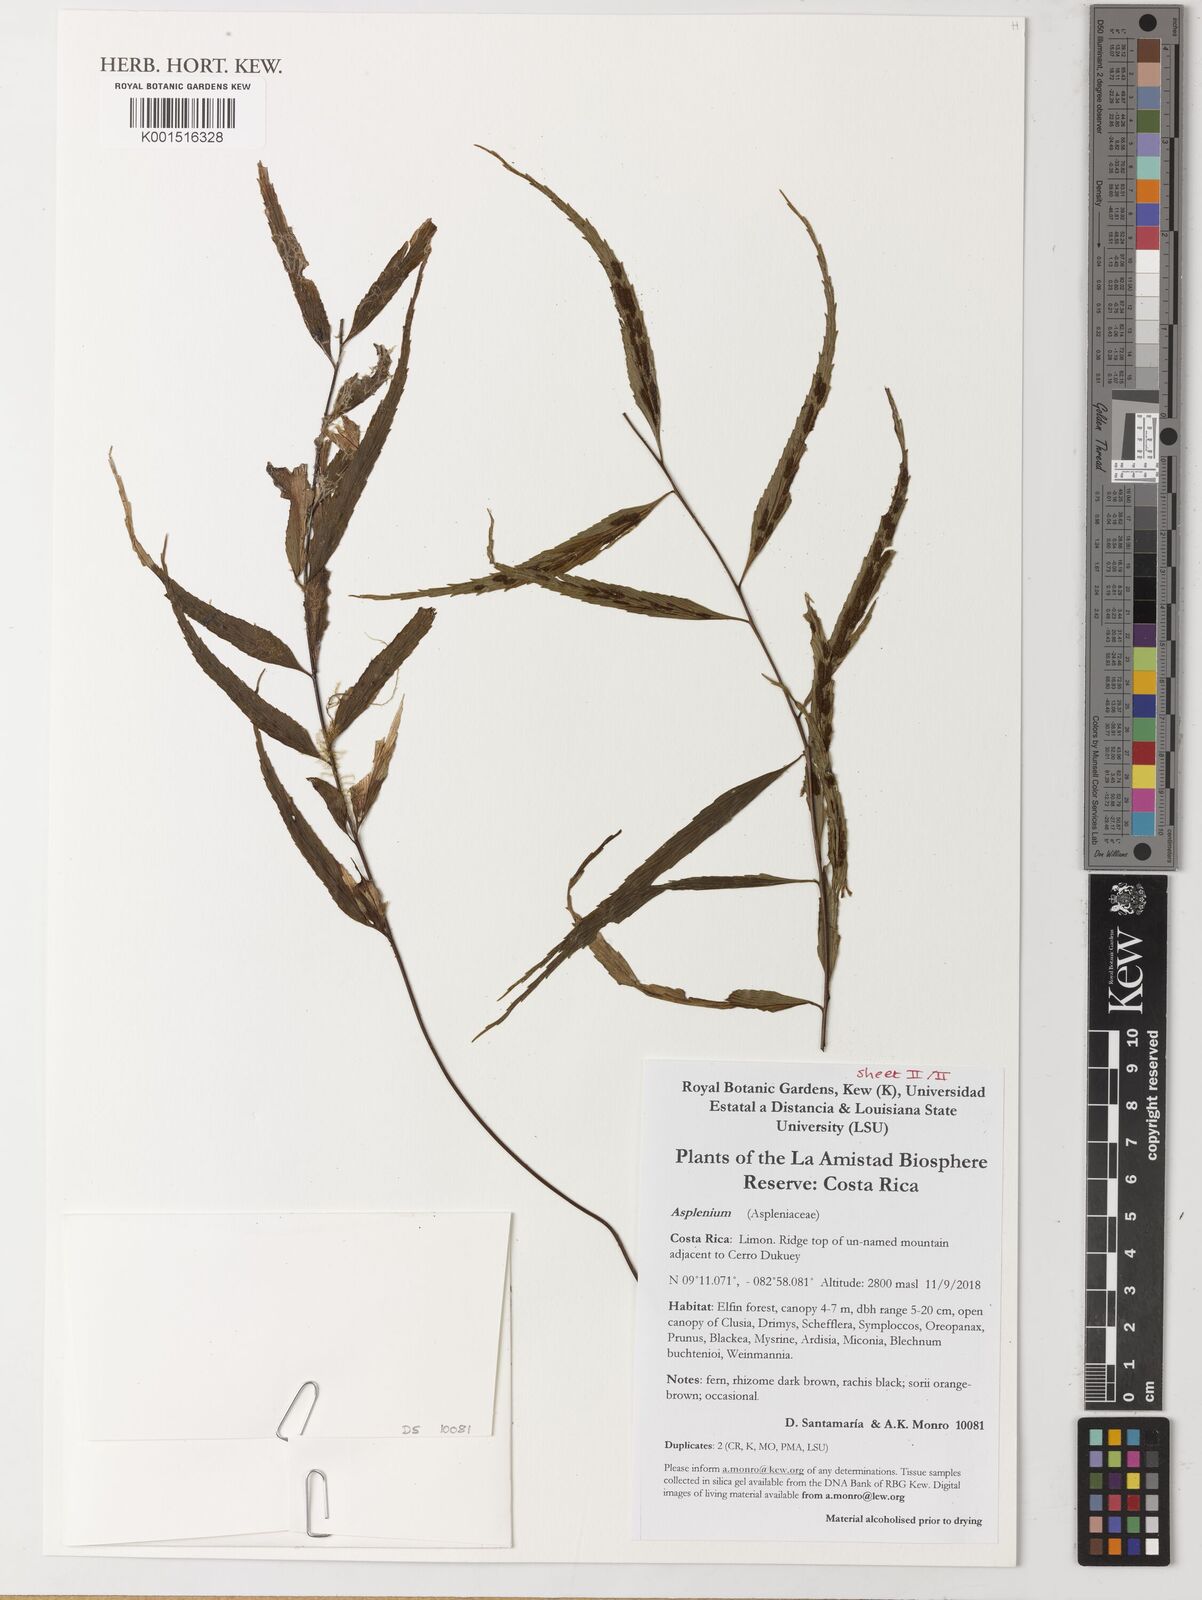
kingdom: Plantae
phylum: Tracheophyta
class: Polypodiopsida
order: Polypodiales
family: Aspleniaceae
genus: Asplenium
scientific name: Asplenium
